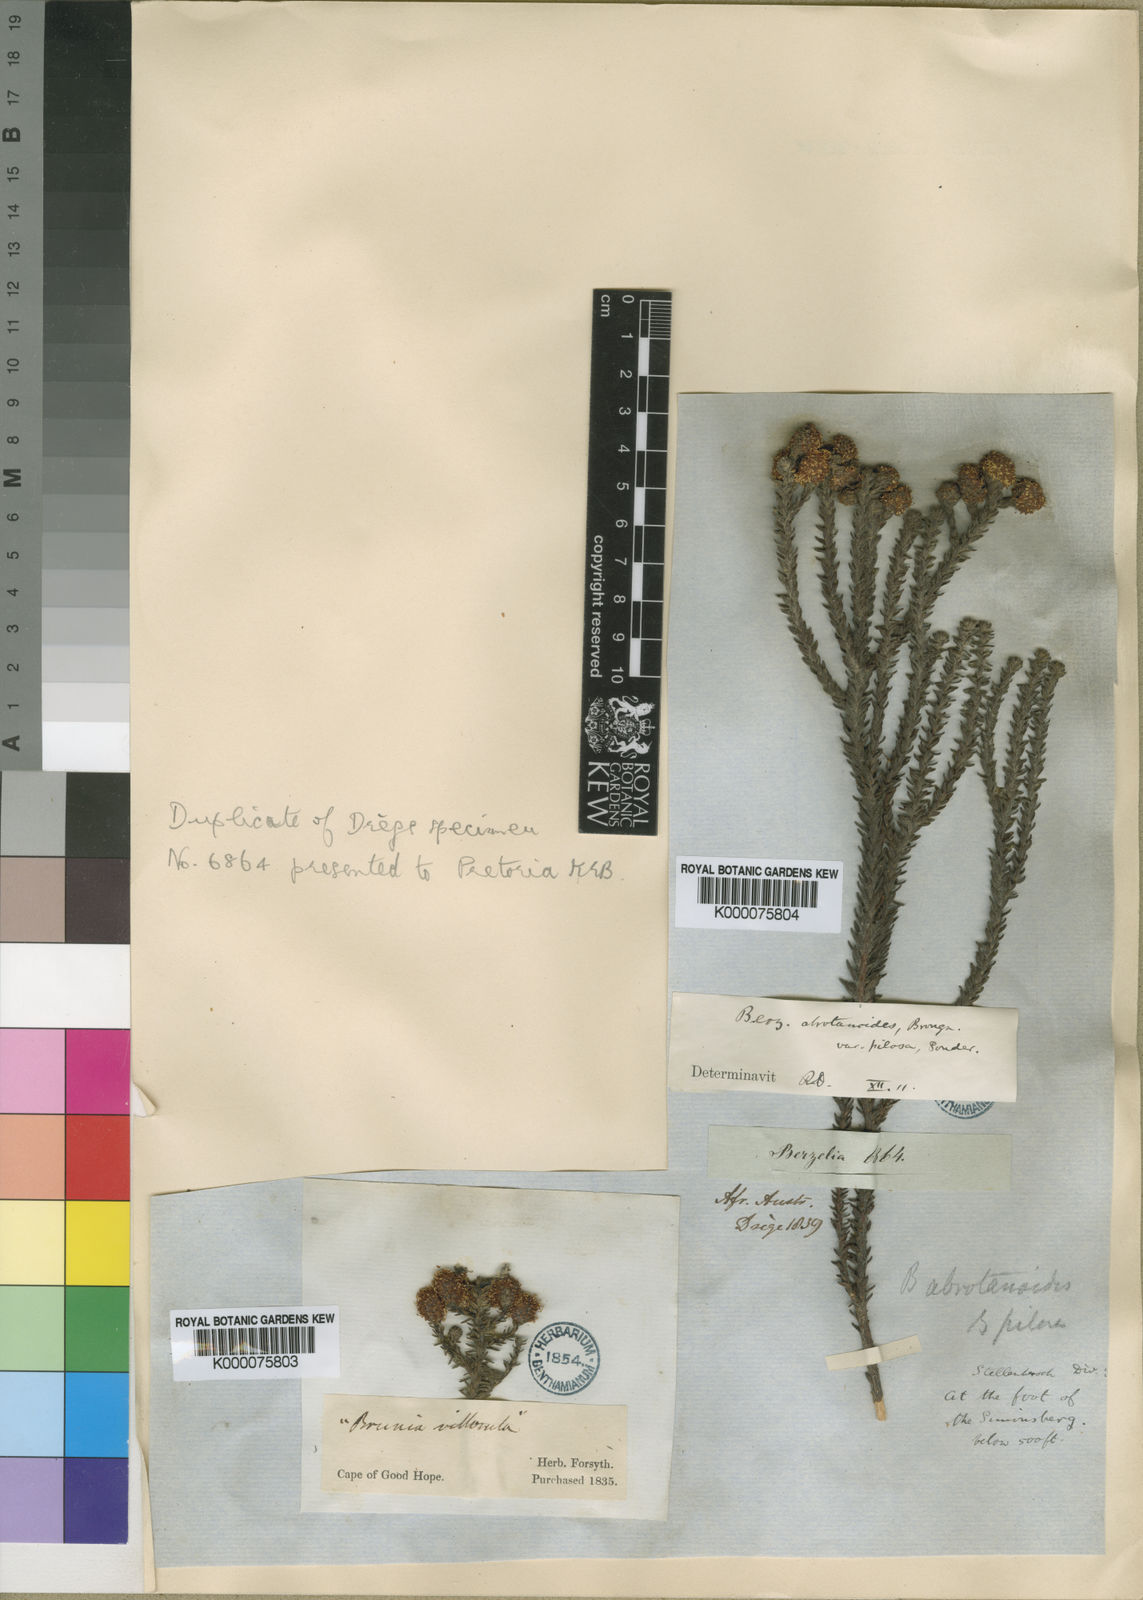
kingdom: Plantae
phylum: Tracheophyta
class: Magnoliopsida
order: Bruniales
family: Bruniaceae
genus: Berzelia
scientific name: Berzelia abrotanoides
